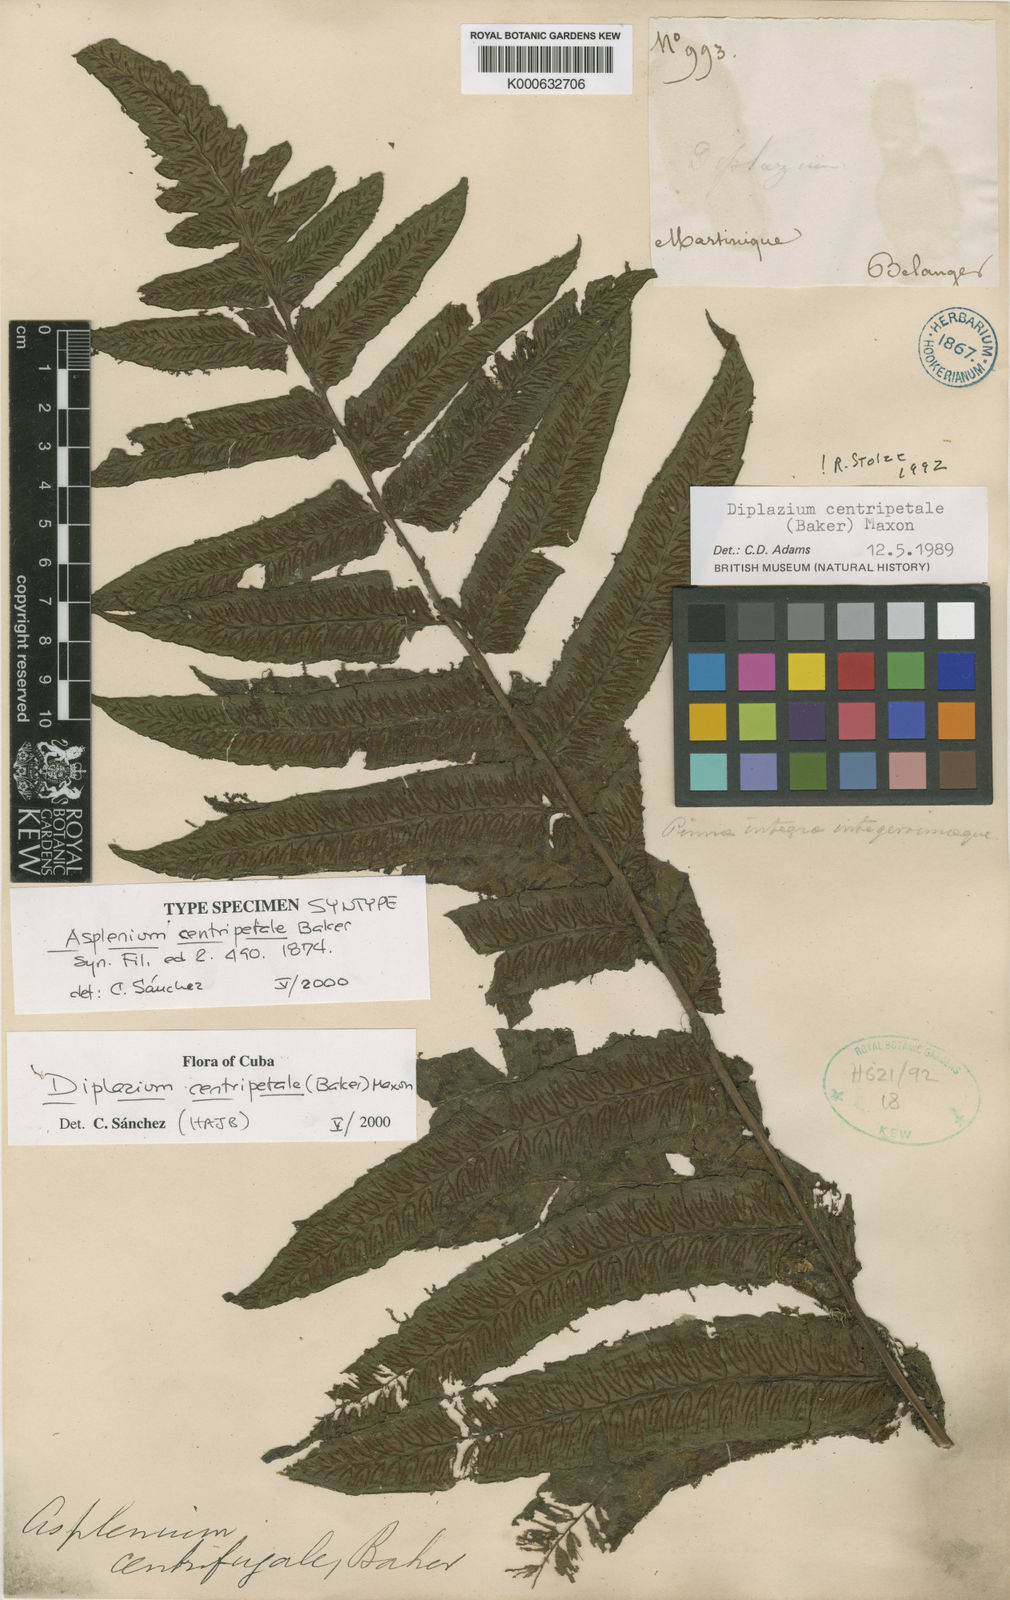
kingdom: Plantae
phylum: Tracheophyta
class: Polypodiopsida
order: Polypodiales
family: Athyriaceae
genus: Diplazium
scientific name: Diplazium centripetale
